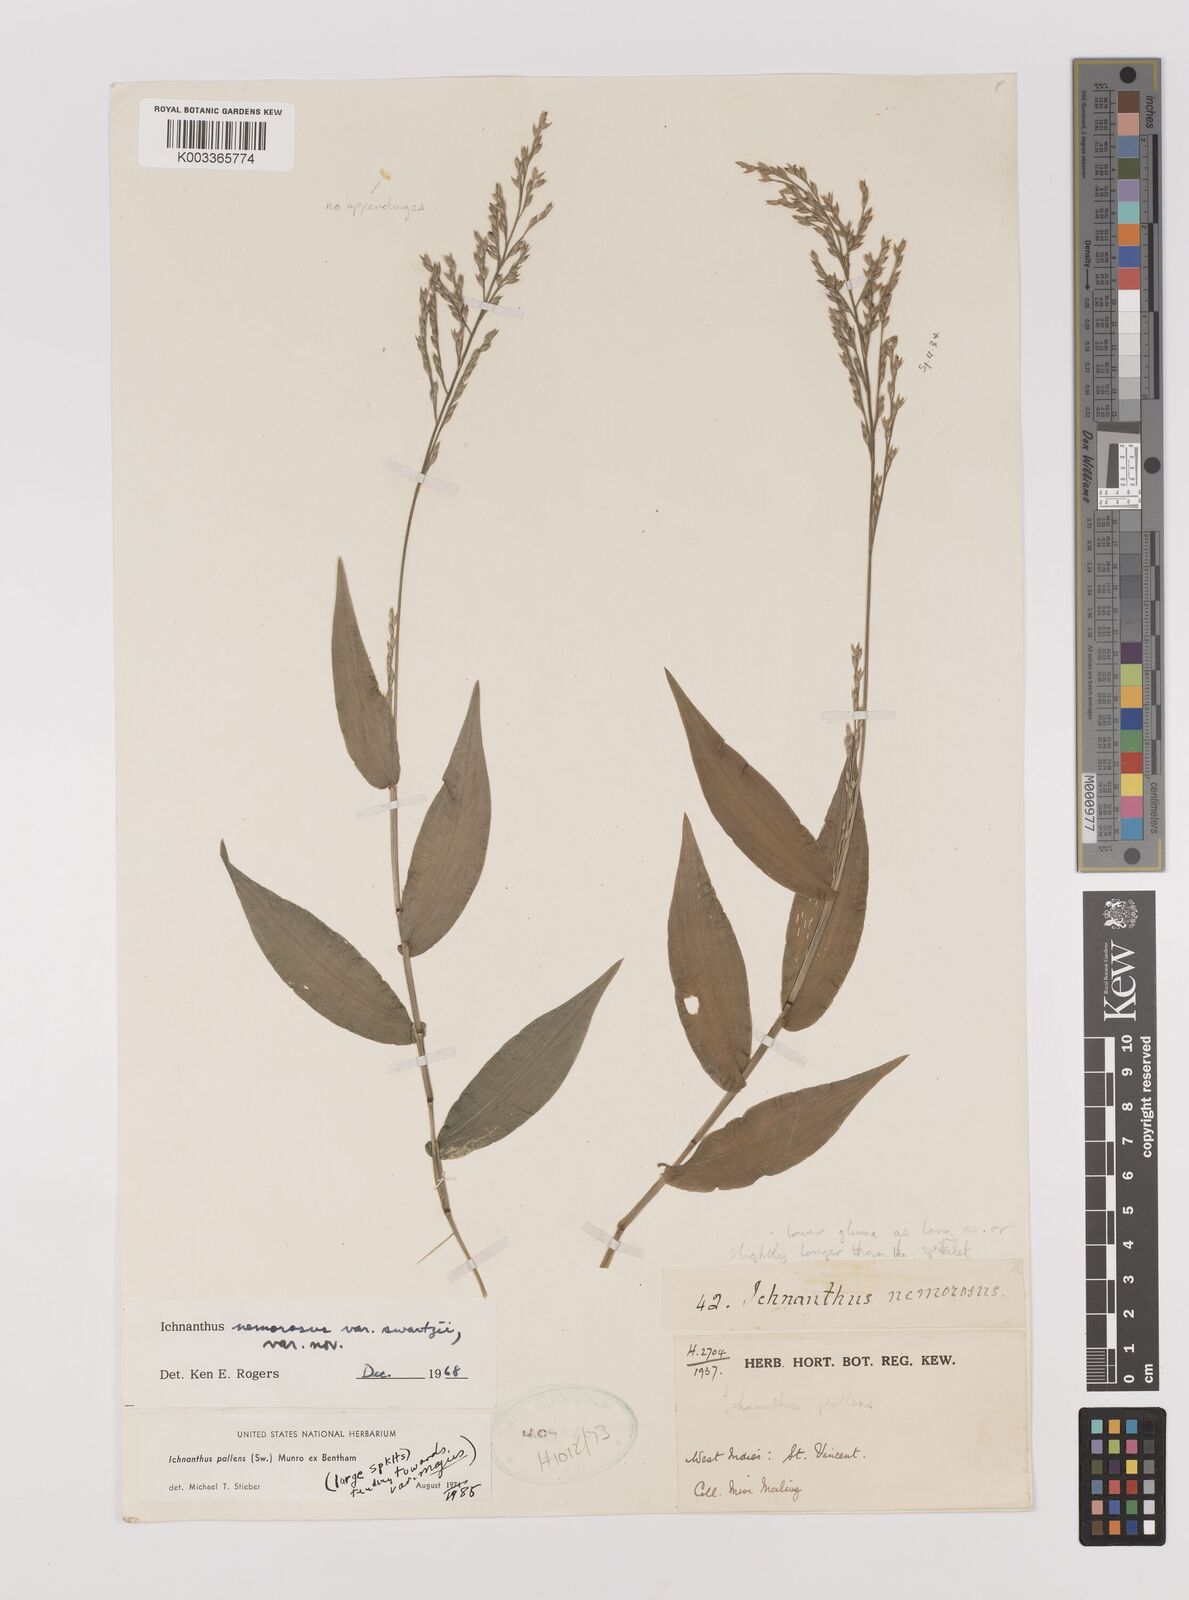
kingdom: Plantae
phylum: Tracheophyta
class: Liliopsida
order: Poales
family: Poaceae
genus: Ichnanthus
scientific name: Ichnanthus pallens
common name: Water grass
